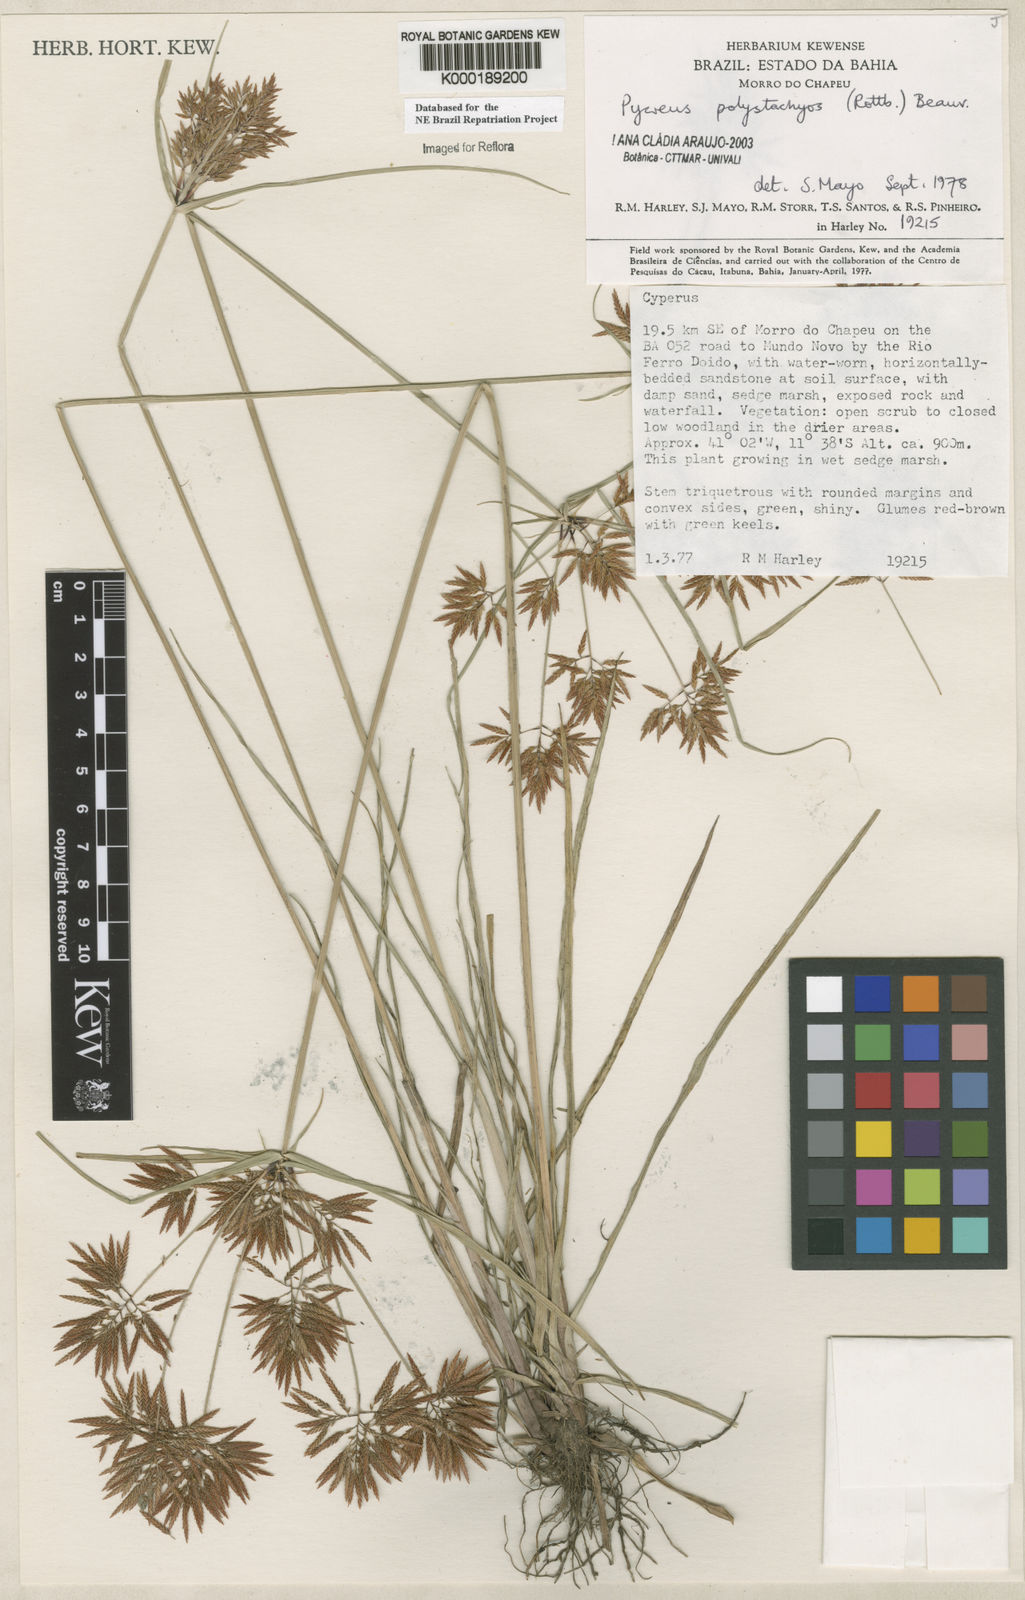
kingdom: Plantae
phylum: Tracheophyta
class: Liliopsida
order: Poales
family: Cyperaceae
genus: Cyperus
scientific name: Cyperus polystachyos
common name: Bunchy flat sedge
